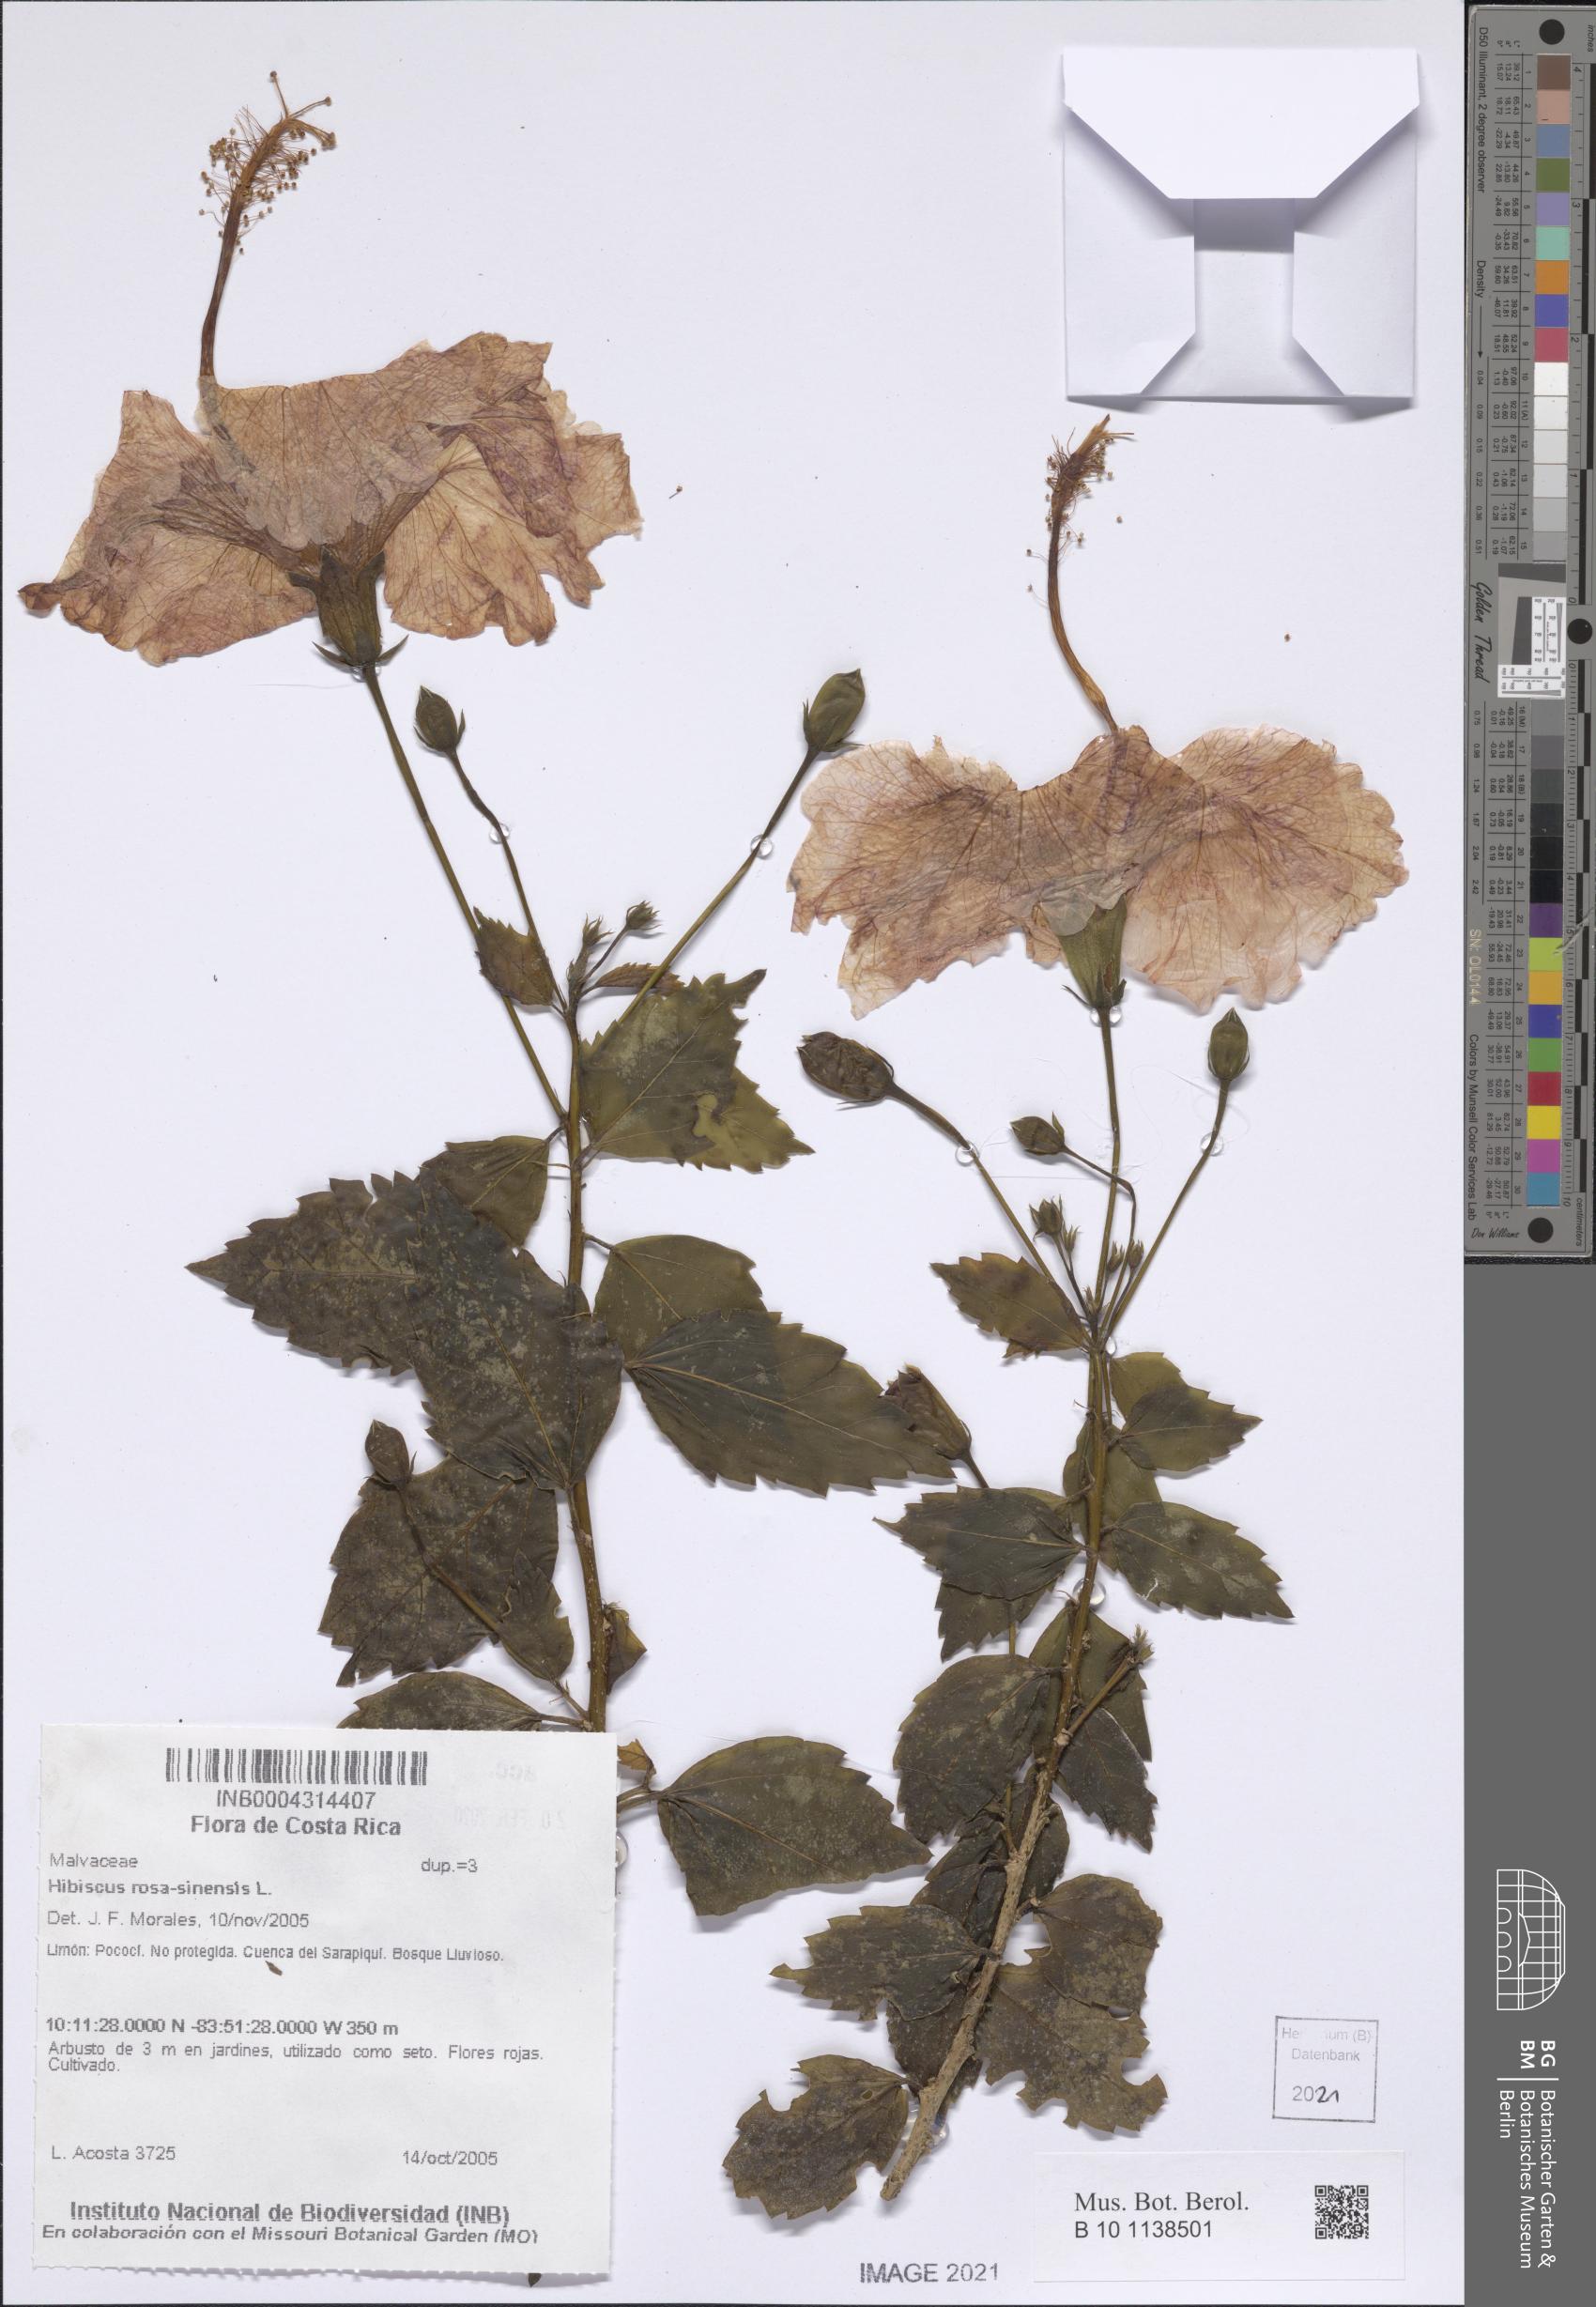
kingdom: Plantae
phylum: Tracheophyta
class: Magnoliopsida
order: Malvales
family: Malvaceae
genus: Hibiscus
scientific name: Hibiscus rosa-sinensis
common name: Hibiscus
